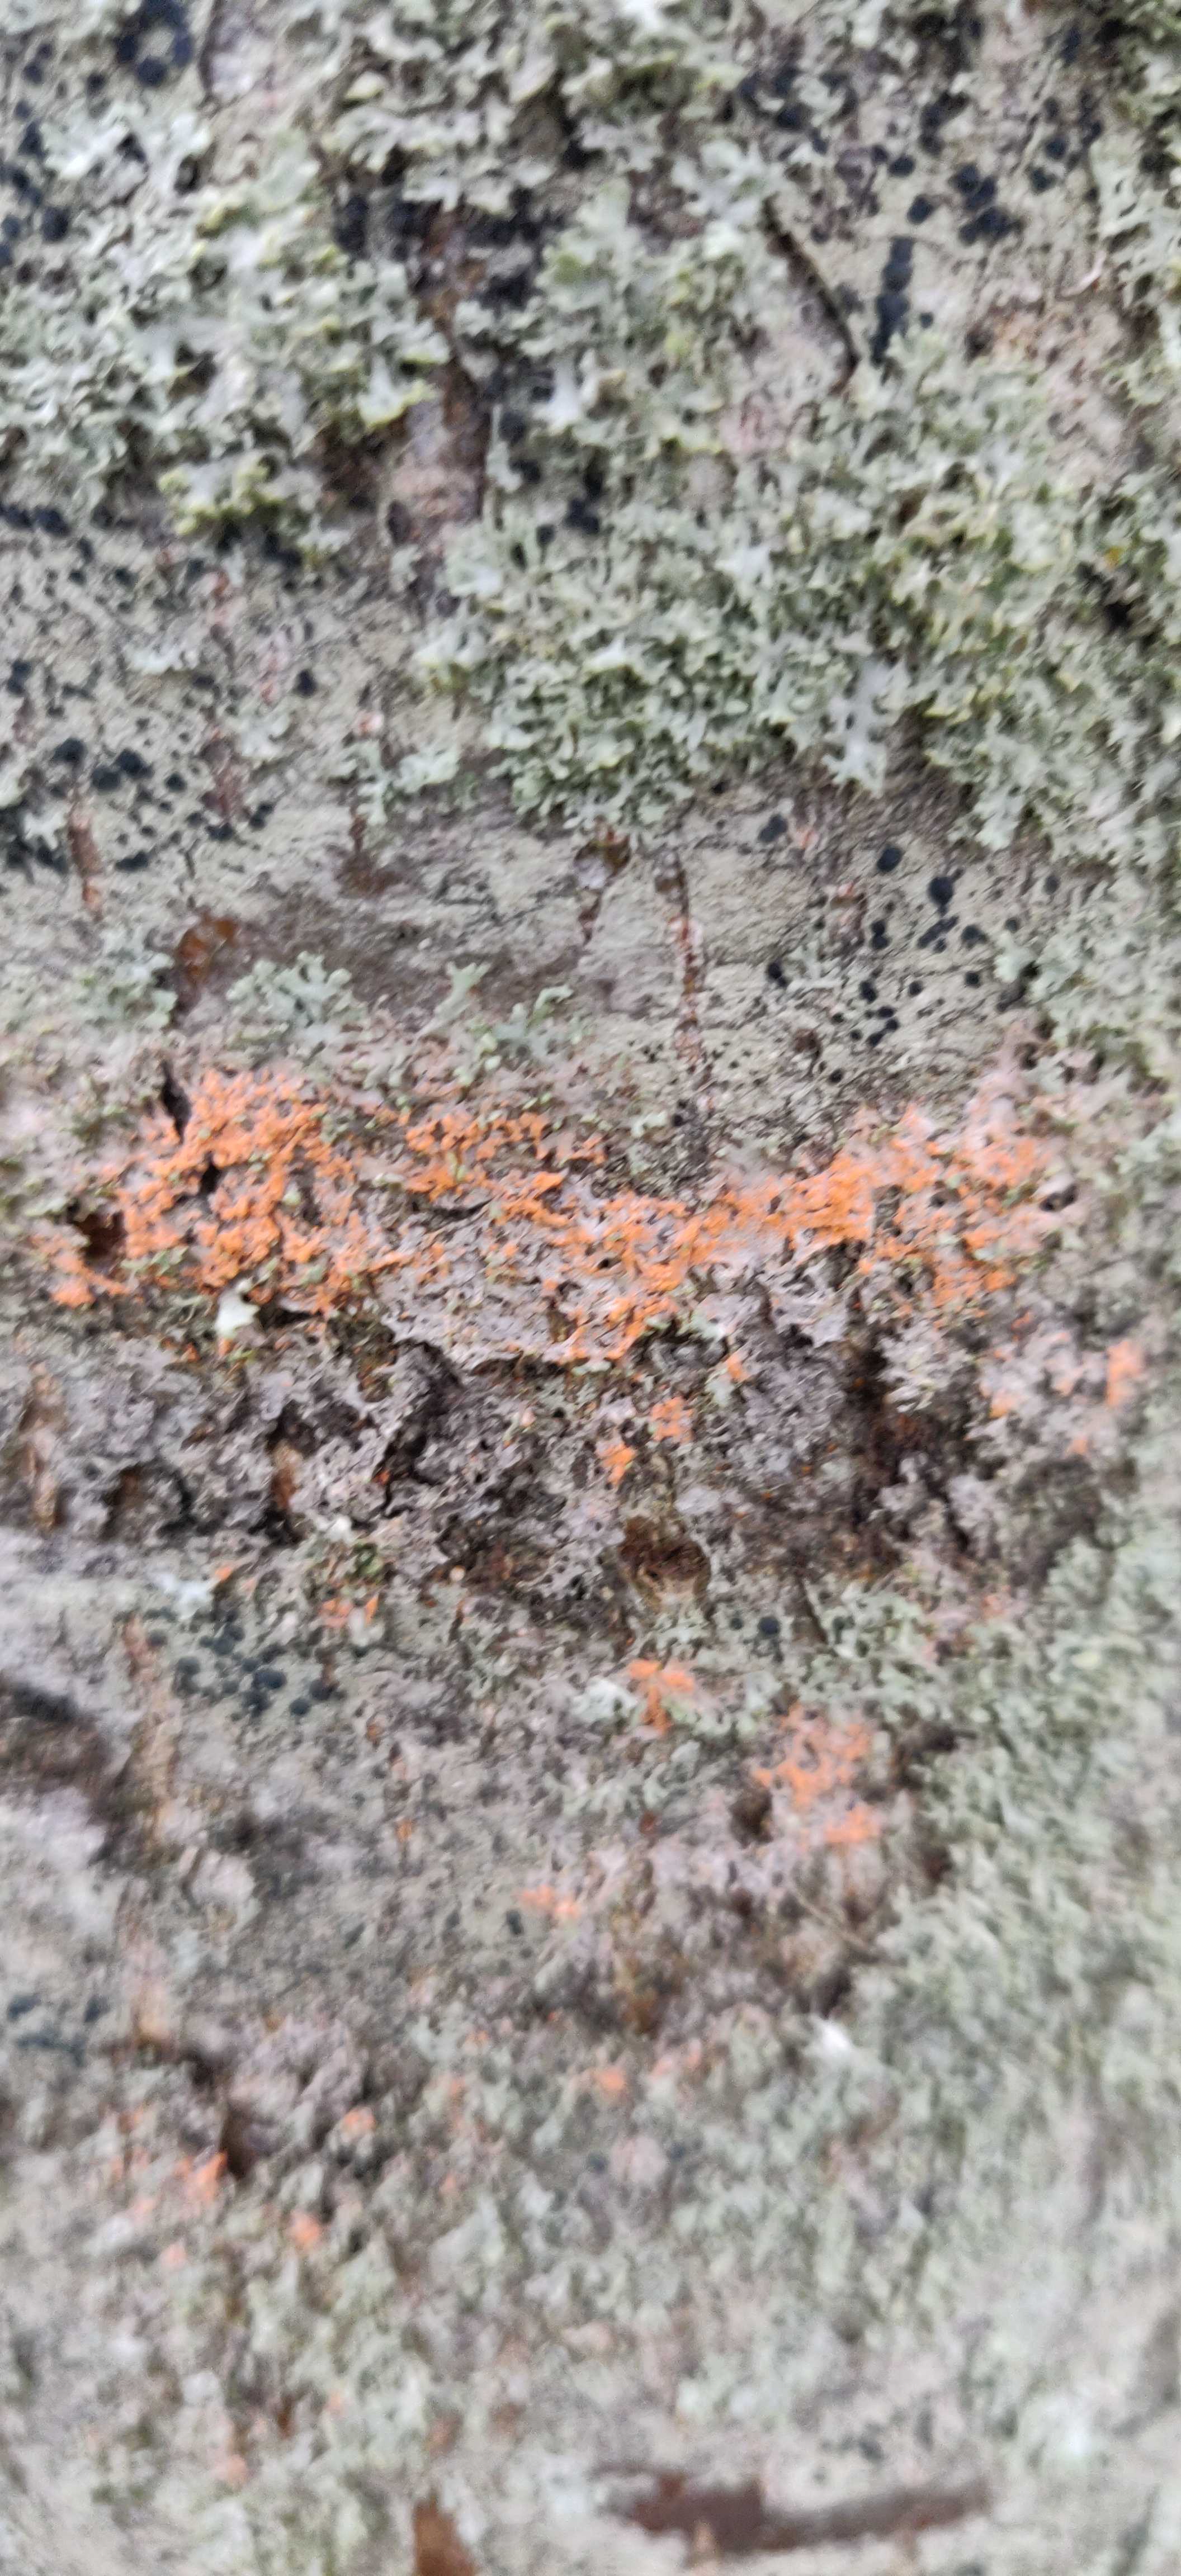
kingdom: Fungi
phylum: Basidiomycota
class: Agaricomycetes
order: Corticiales
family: Corticiaceae
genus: Erythricium
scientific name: Erythricium aurantiacum
